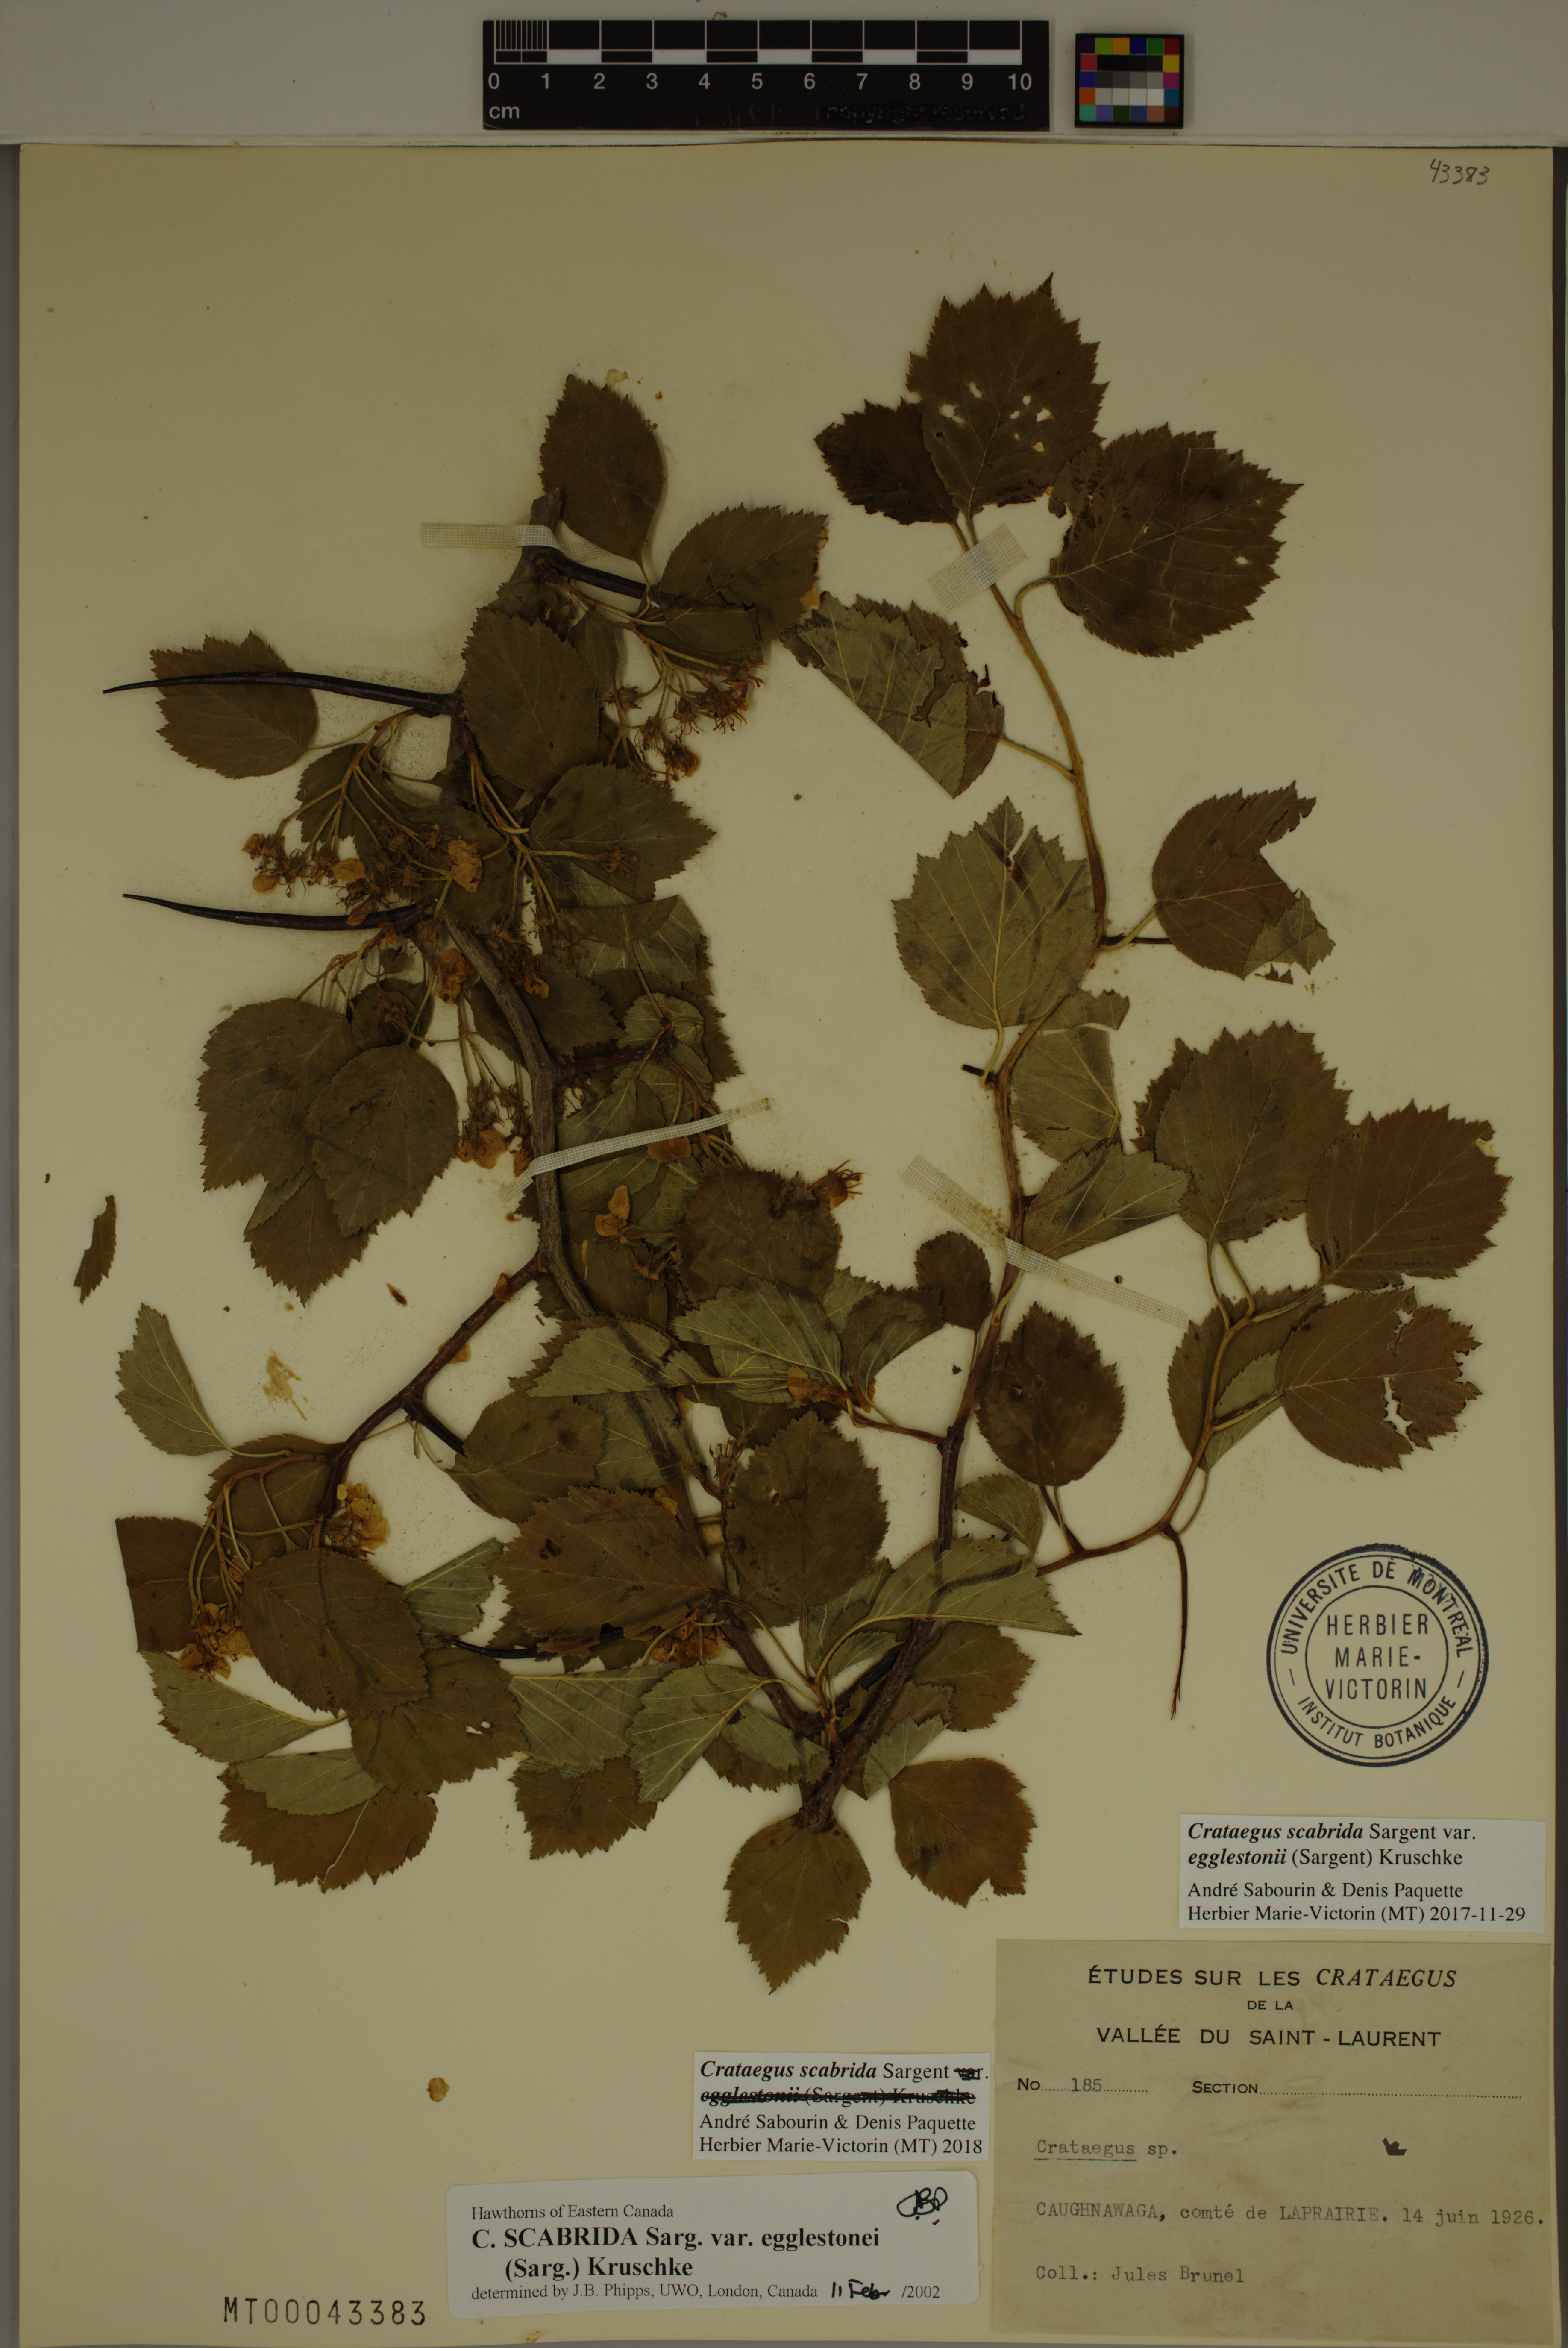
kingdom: Plantae
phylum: Tracheophyta
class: Magnoliopsida
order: Rosales
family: Rosaceae
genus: Crataegus
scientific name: Crataegus scabrida
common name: Rough hawthorn
